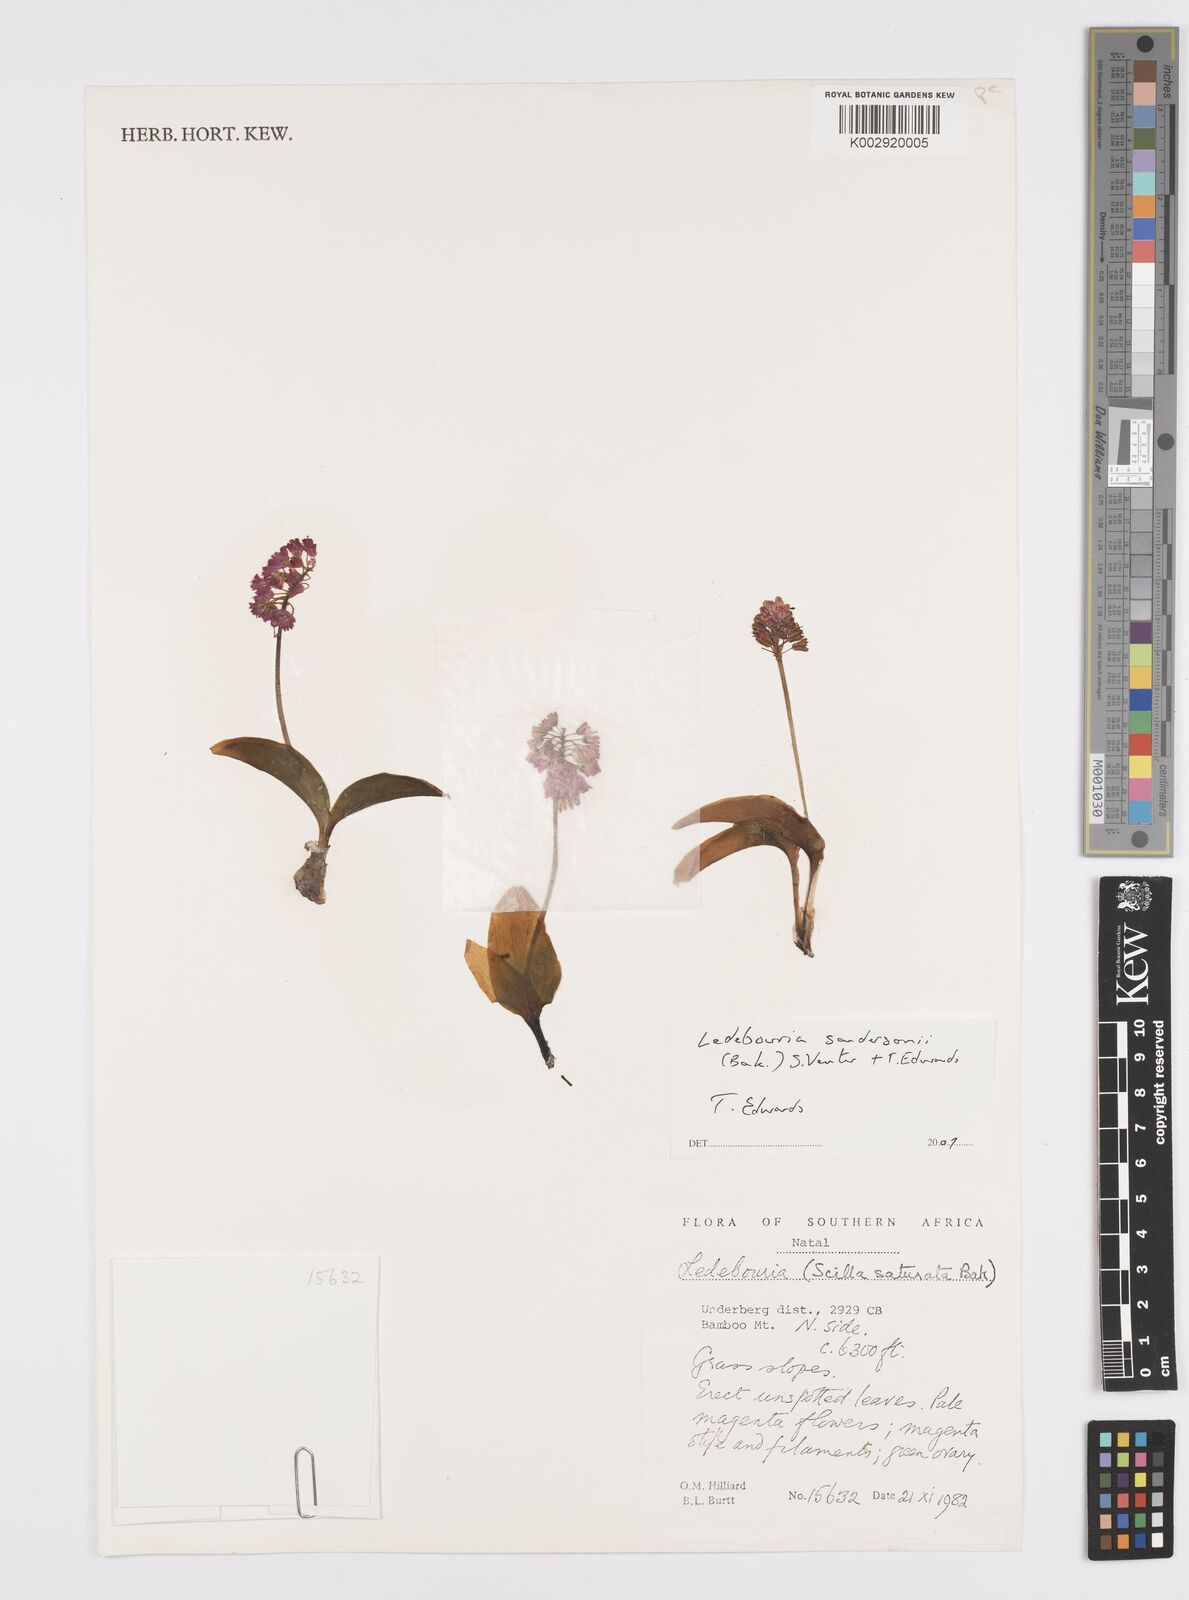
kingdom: Plantae
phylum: Tracheophyta
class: Liliopsida
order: Asparagales
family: Asparagaceae
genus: Ledebouria
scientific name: Ledebouria sandersonii
